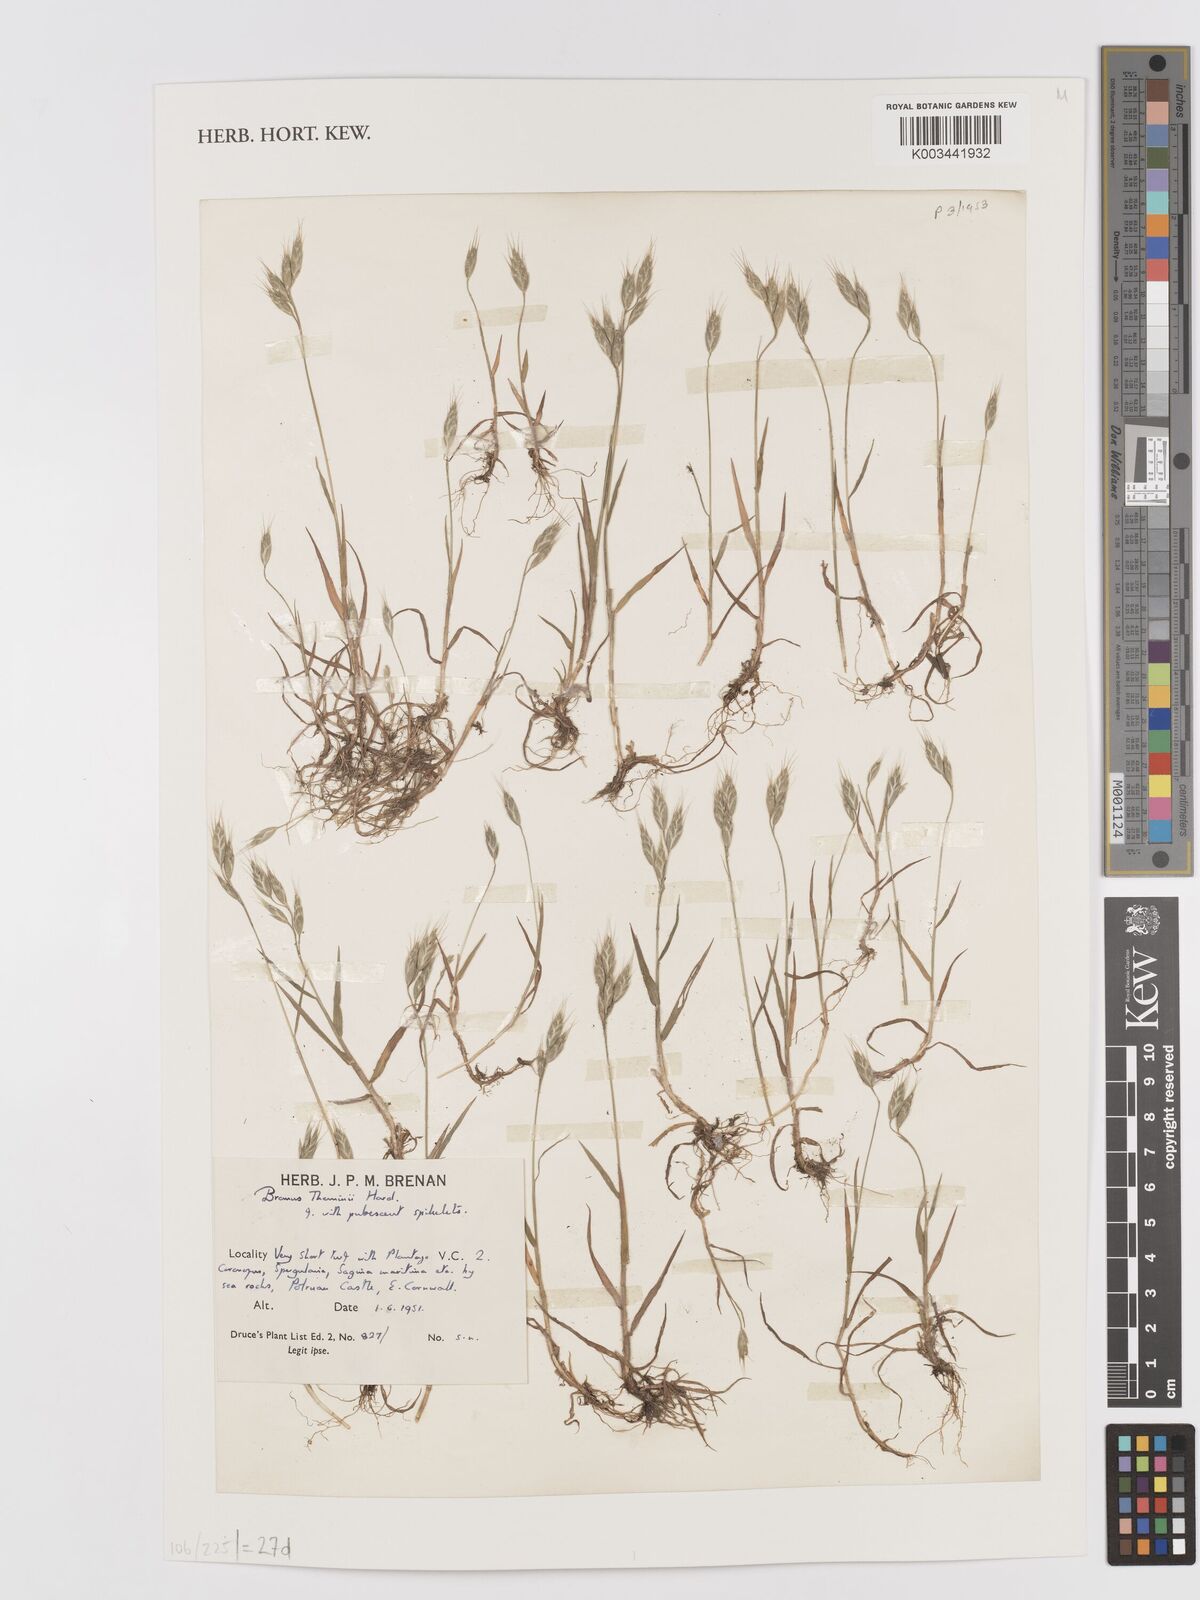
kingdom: Plantae
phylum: Tracheophyta
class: Liliopsida
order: Poales
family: Poaceae
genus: Bromus
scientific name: Bromus hordeaceus
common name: Soft brome
